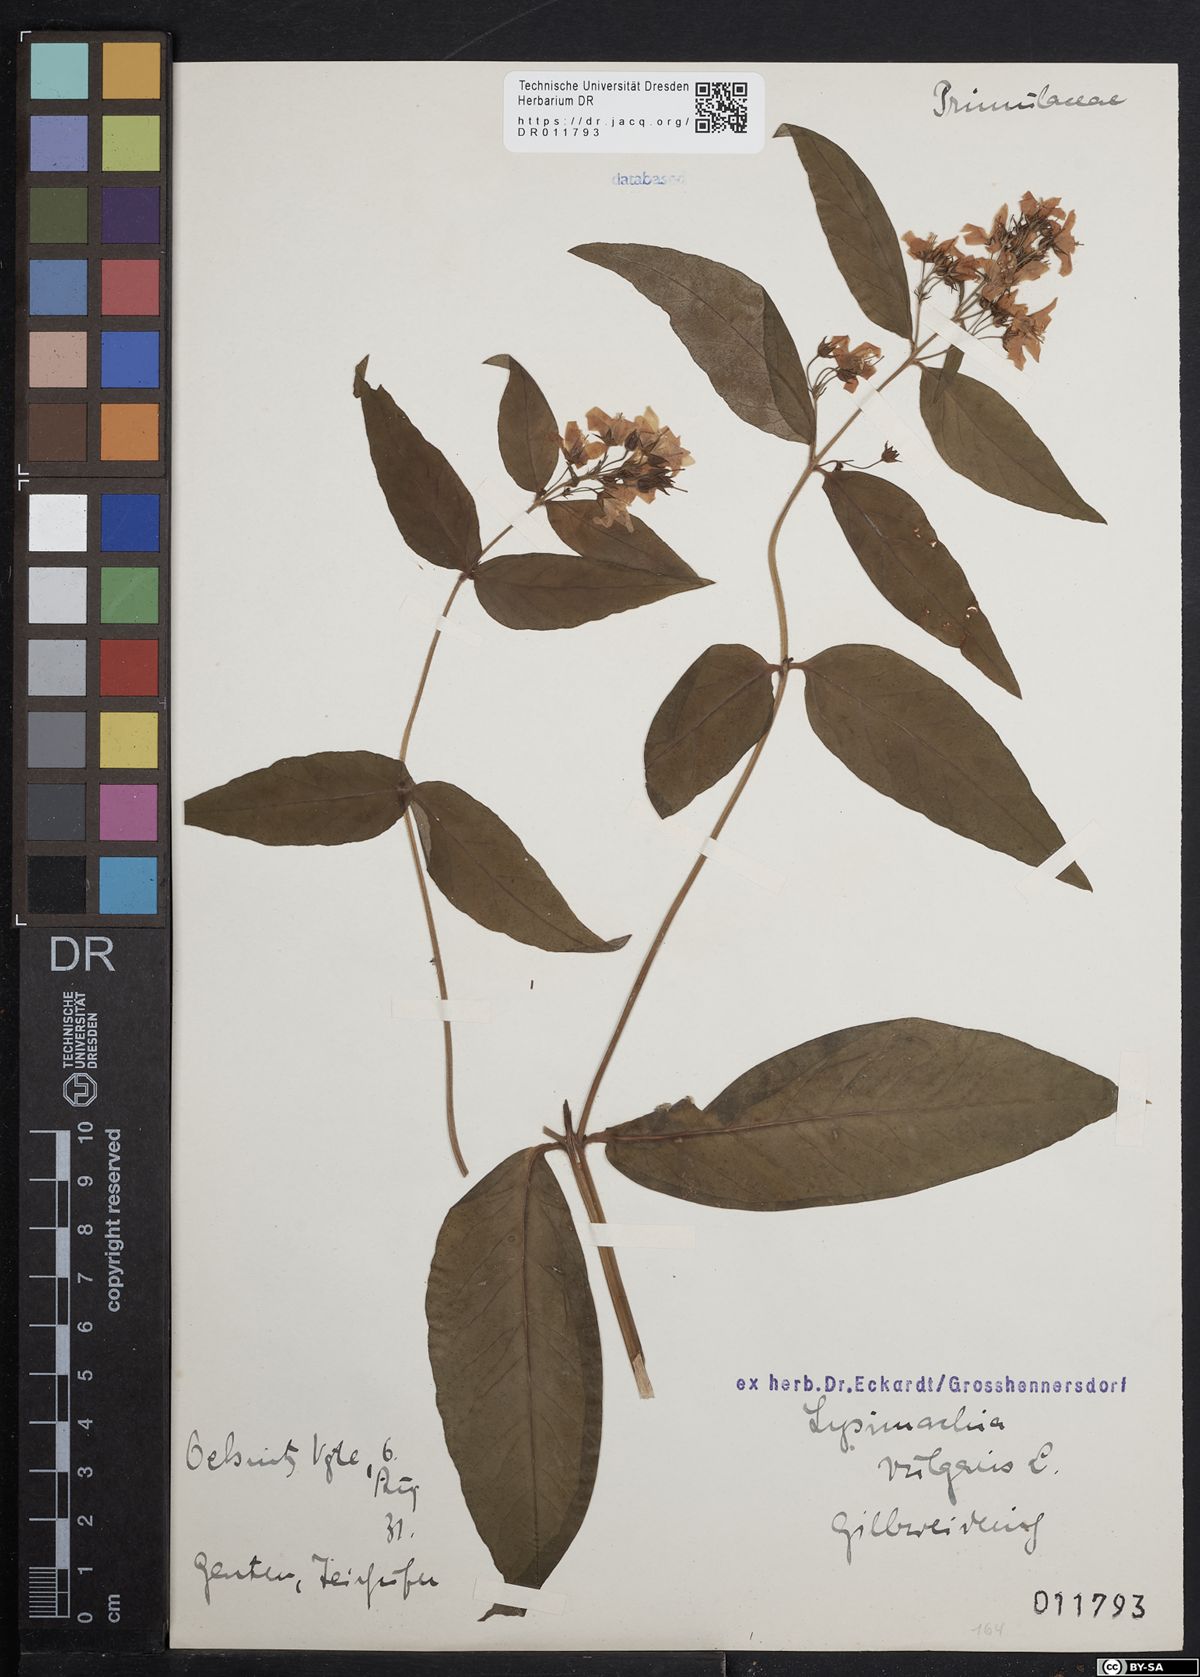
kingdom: Plantae
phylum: Tracheophyta
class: Magnoliopsida
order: Ericales
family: Primulaceae
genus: Lysimachia
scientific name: Lysimachia vulgaris
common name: Yellow loosestrife
